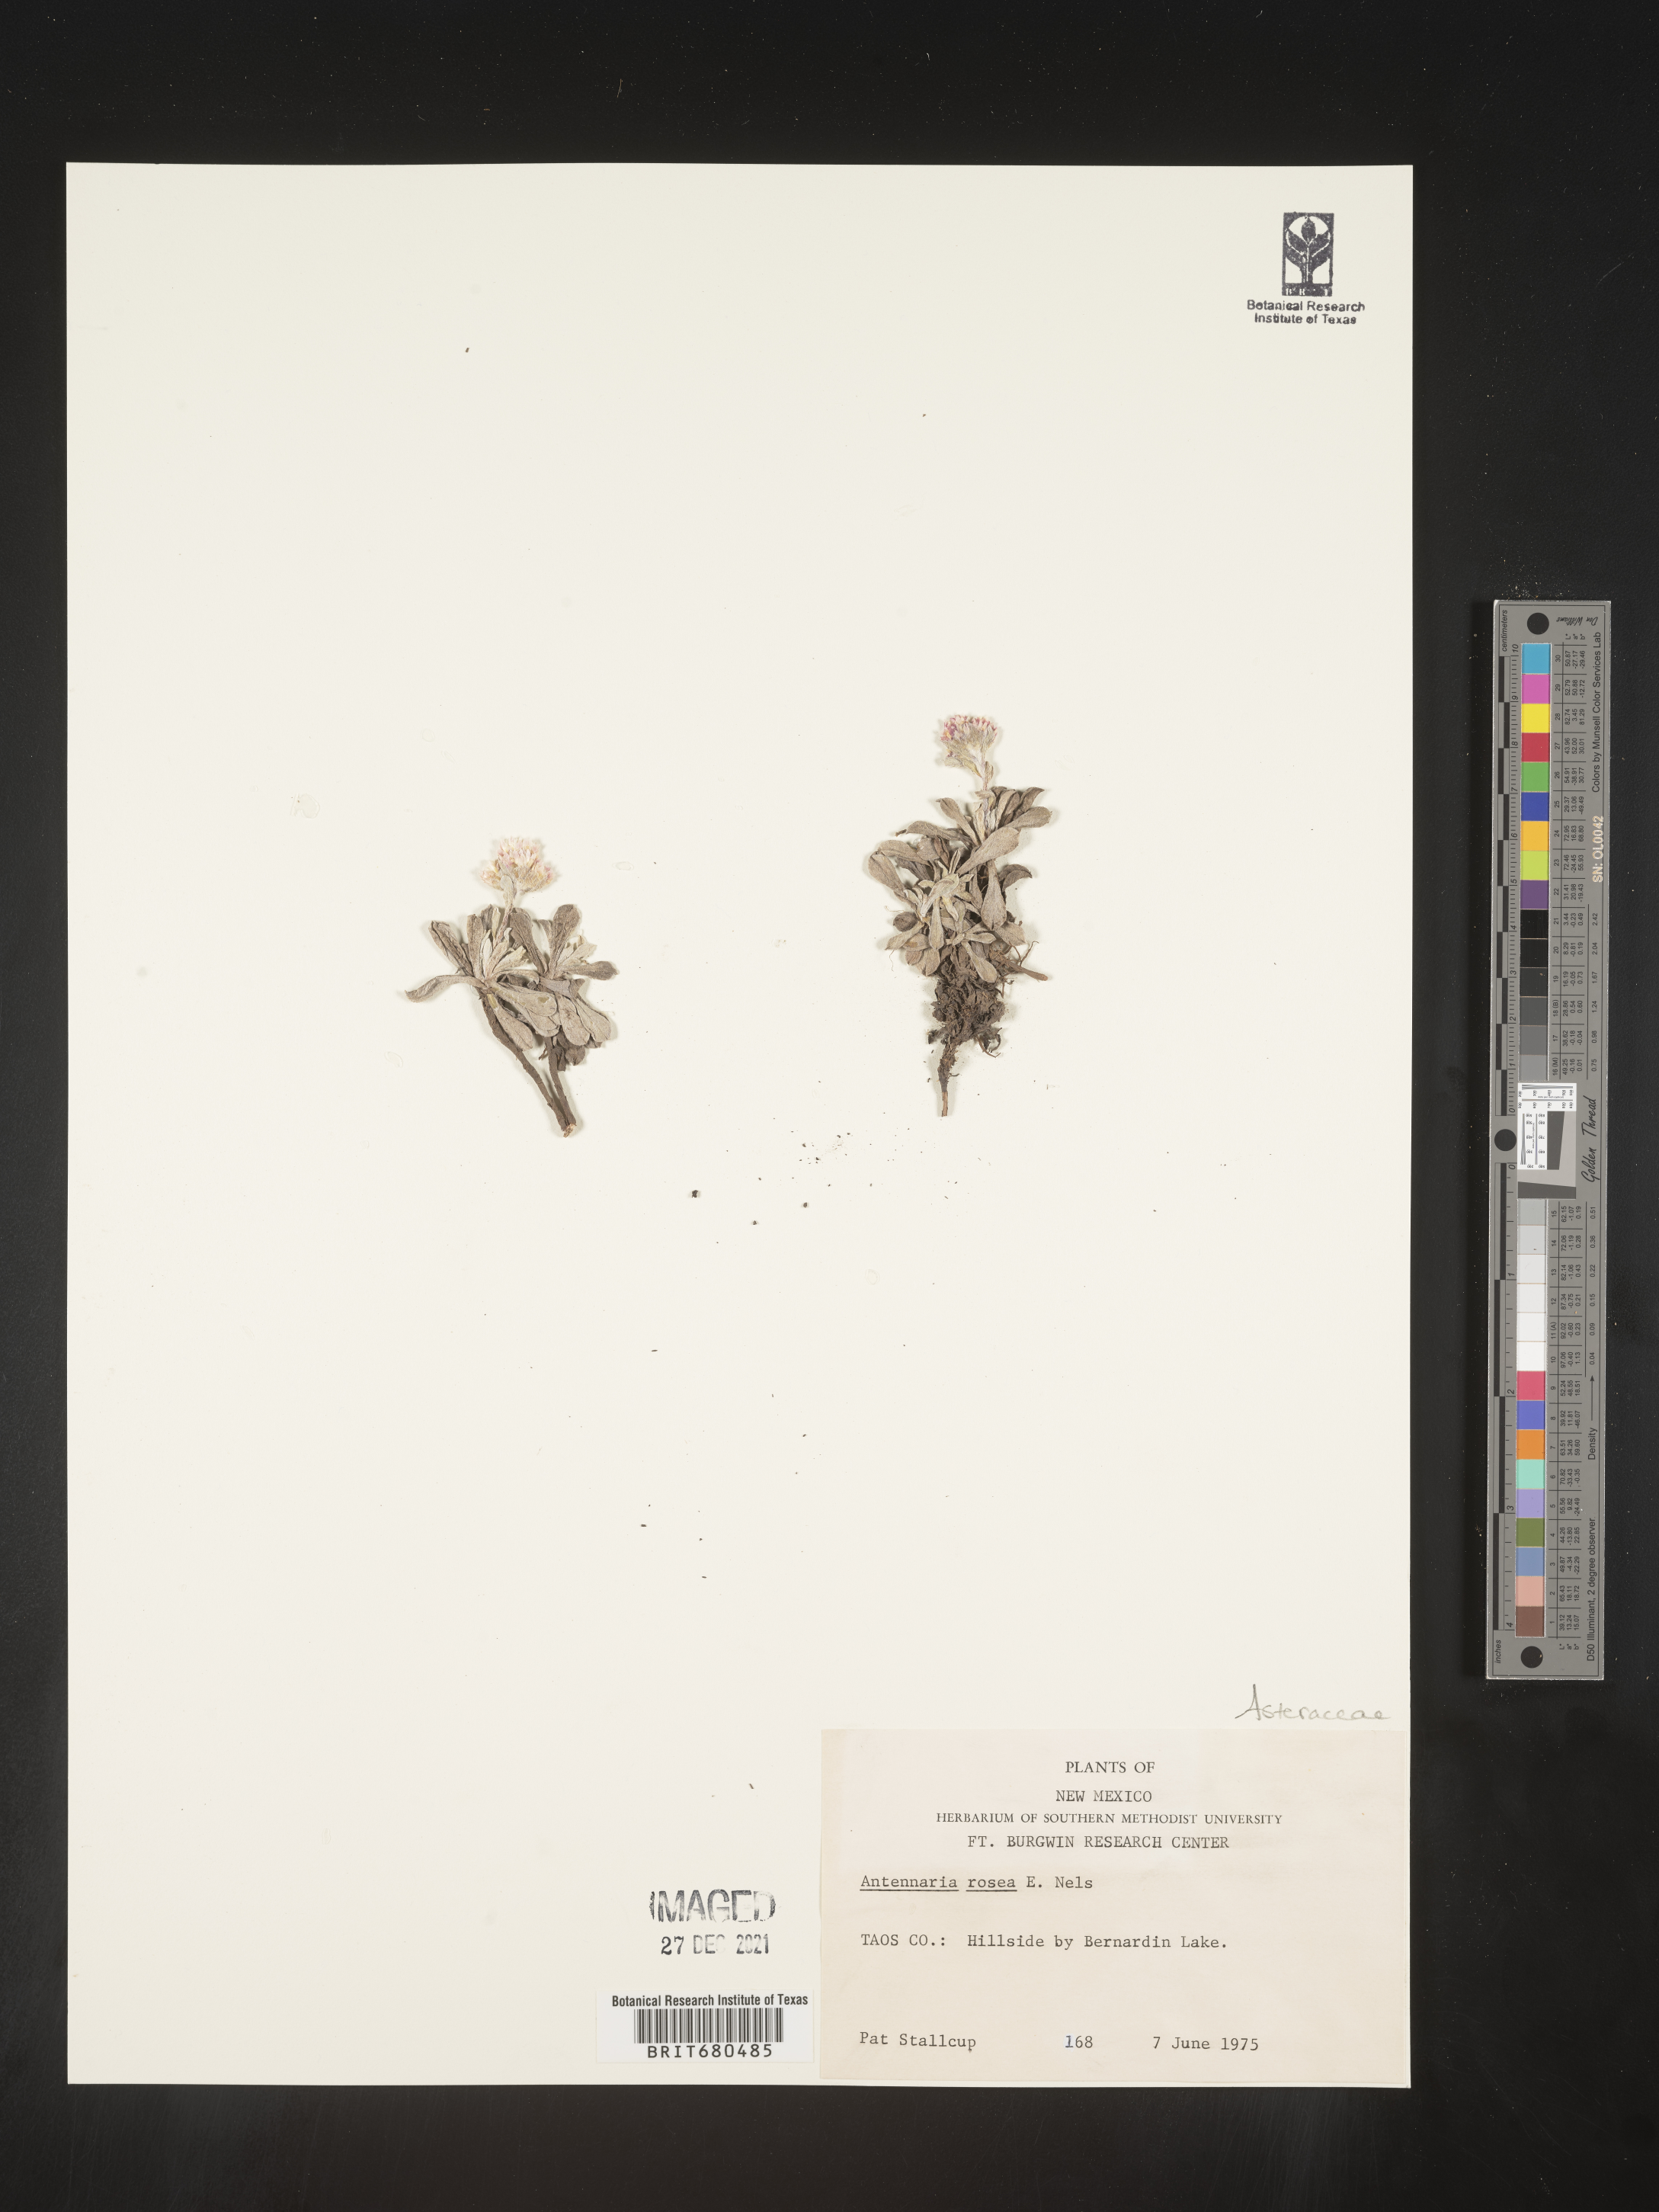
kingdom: Plantae
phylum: Tracheophyta
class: Magnoliopsida
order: Asterales
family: Asteraceae
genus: Antennaria
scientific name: Antennaria rosea
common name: Rosy pussytoes
